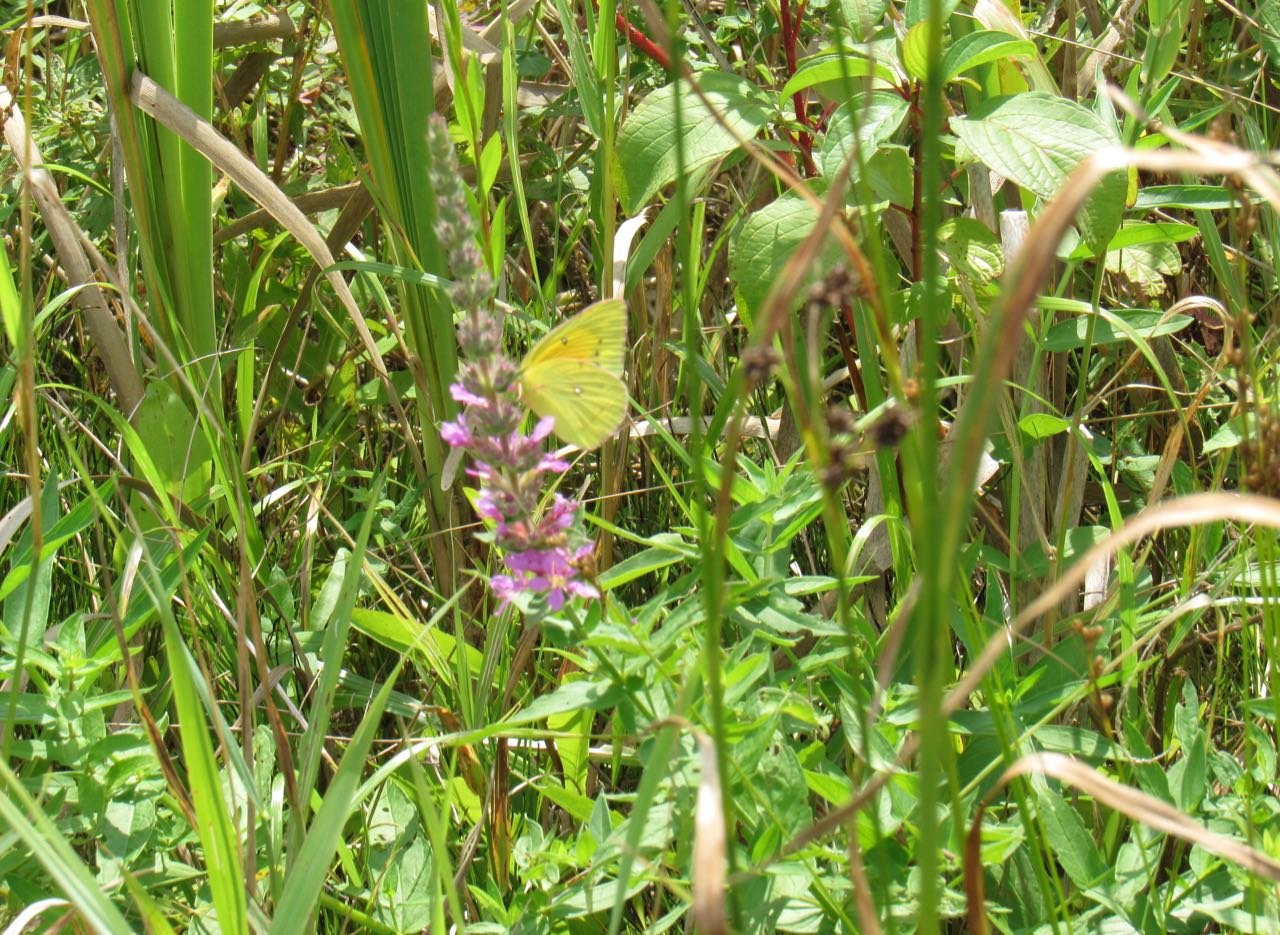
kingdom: Animalia
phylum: Arthropoda
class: Insecta
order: Lepidoptera
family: Pieridae
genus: Colias
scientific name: Colias eurytheme
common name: Orange Sulphur
